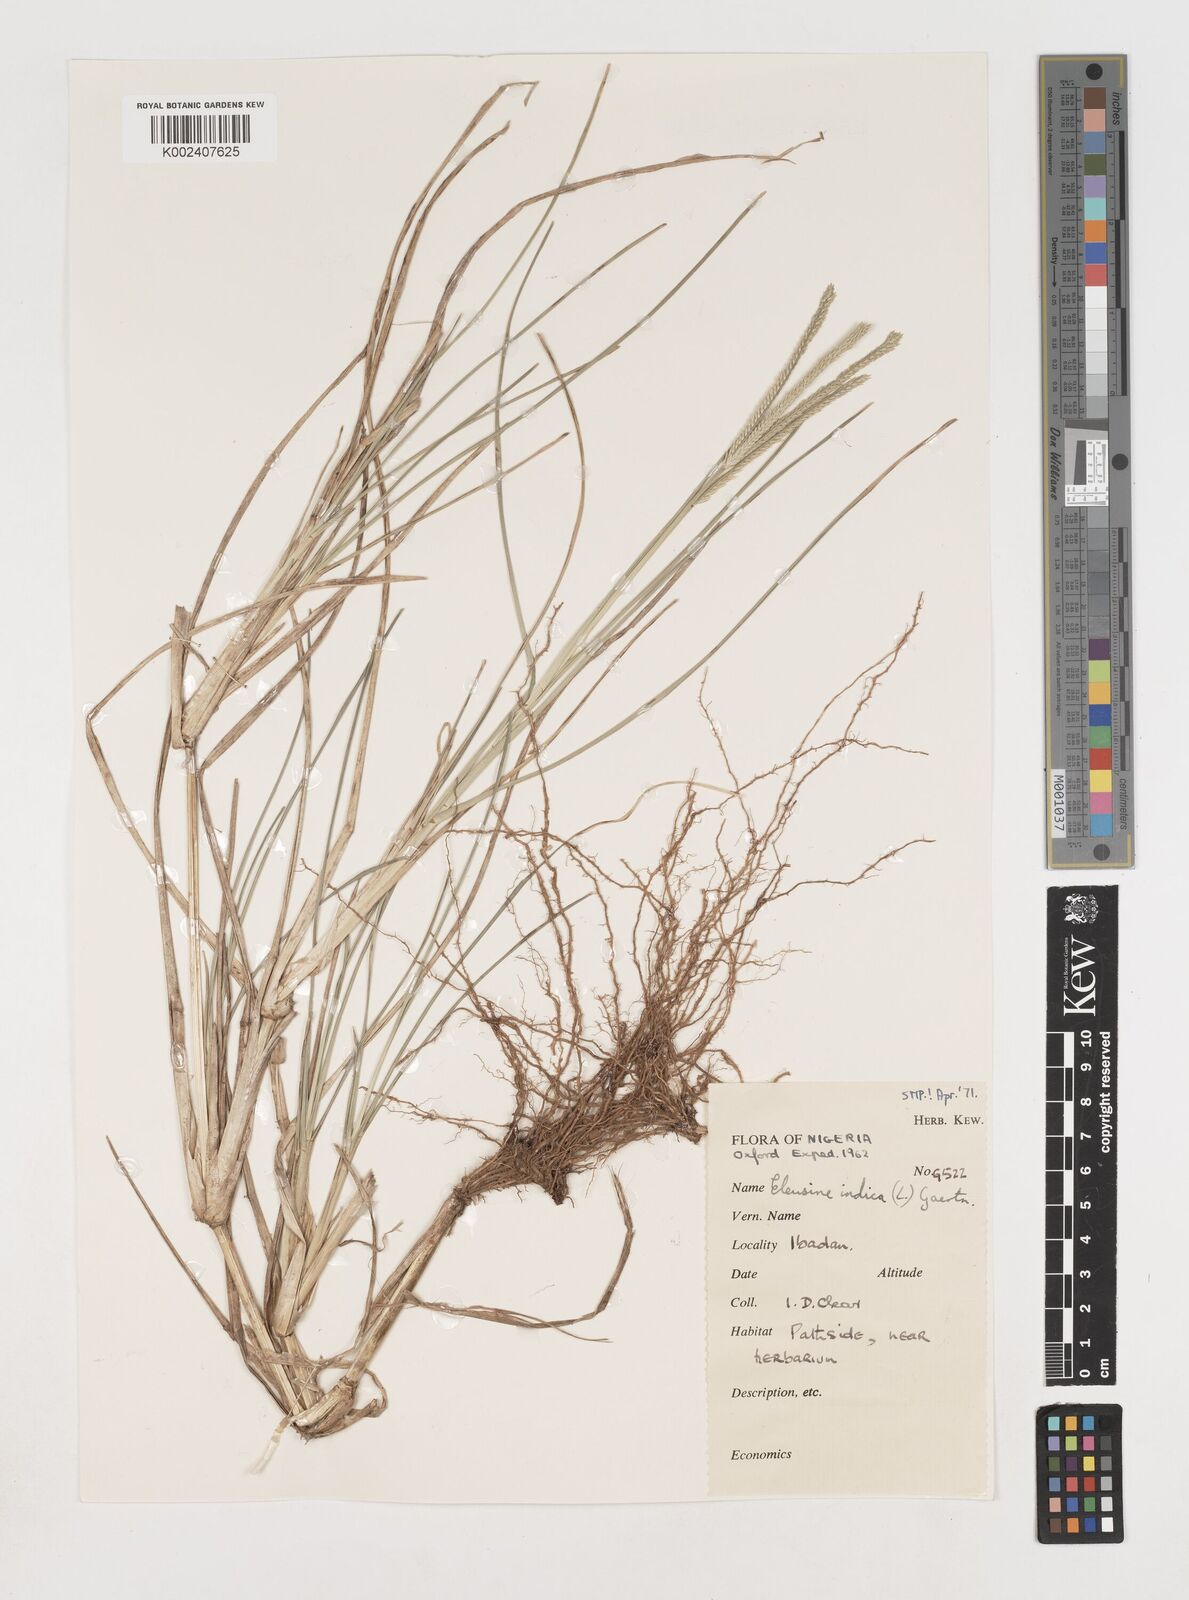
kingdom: Plantae
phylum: Tracheophyta
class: Liliopsida
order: Poales
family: Poaceae
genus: Eleusine
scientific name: Eleusine indica
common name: Yard-grass
